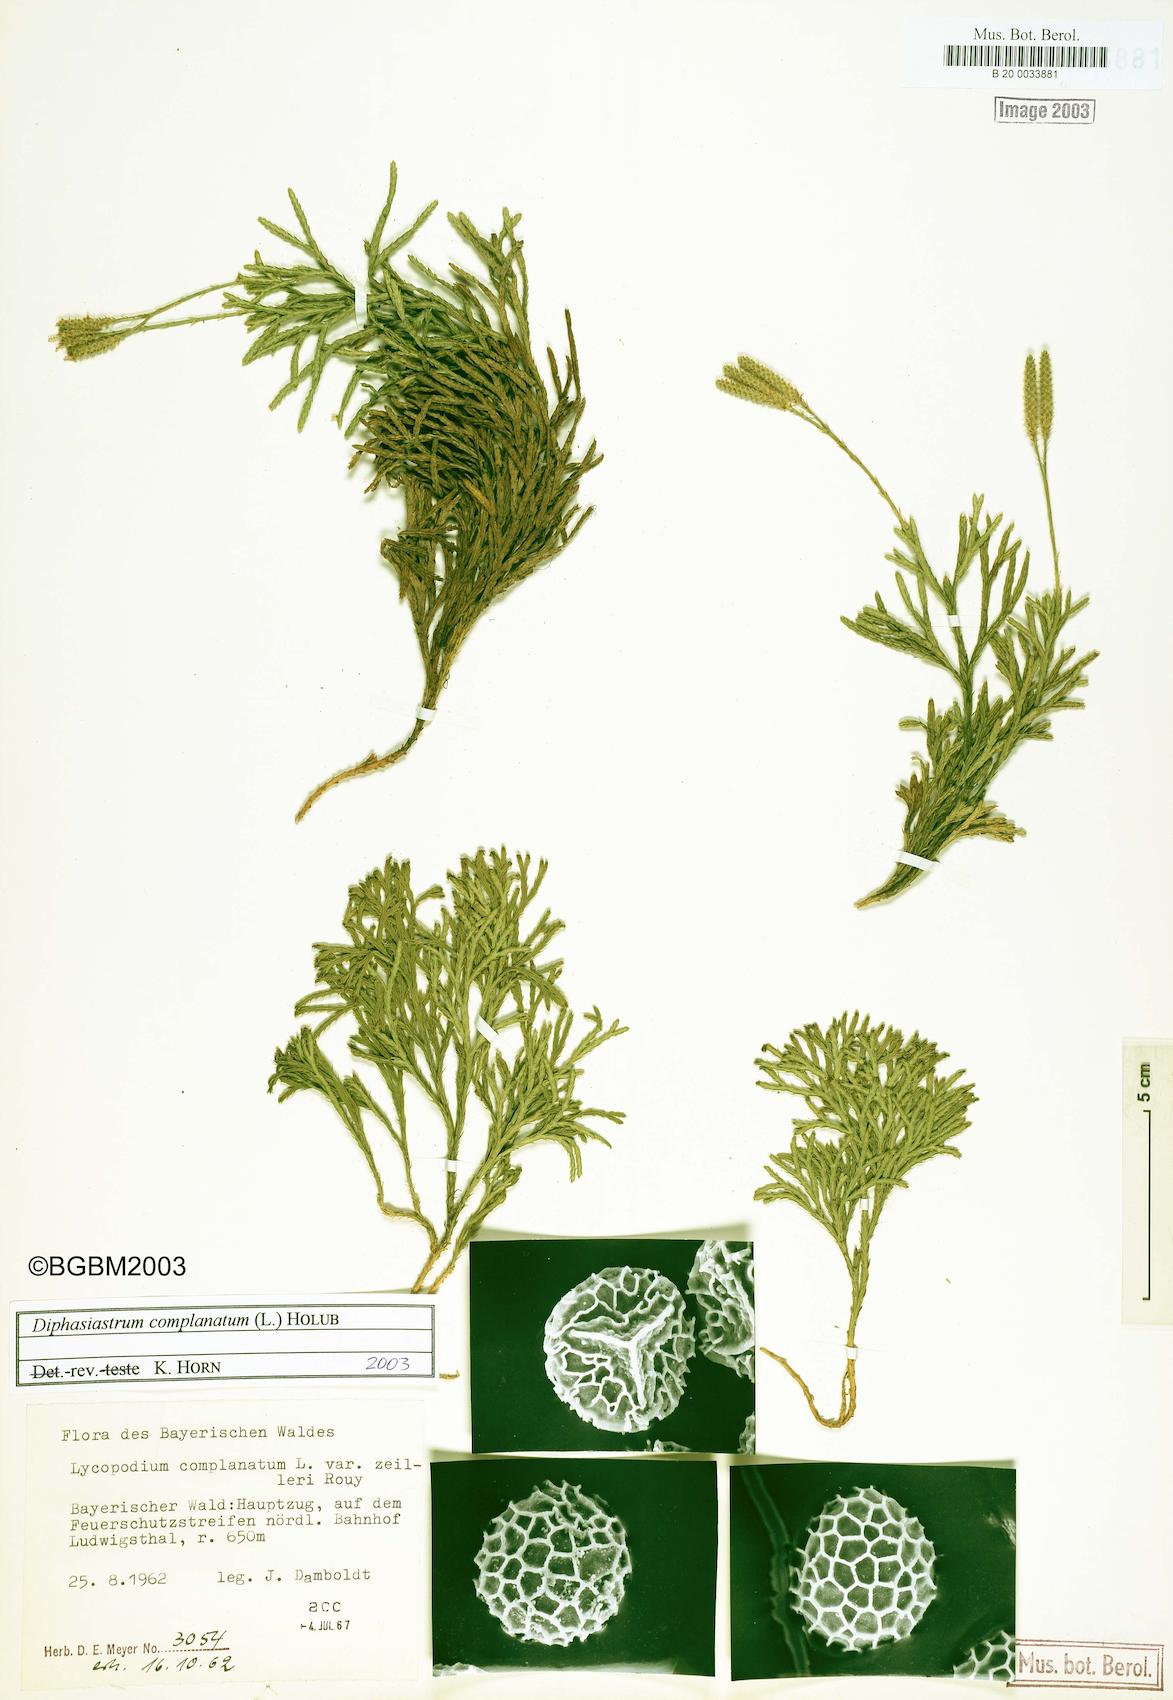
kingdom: Plantae
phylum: Tracheophyta
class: Lycopodiopsida
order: Lycopodiales
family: Lycopodiaceae
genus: Diphasiastrum
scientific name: Diphasiastrum complanatum
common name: Northern running-pine
